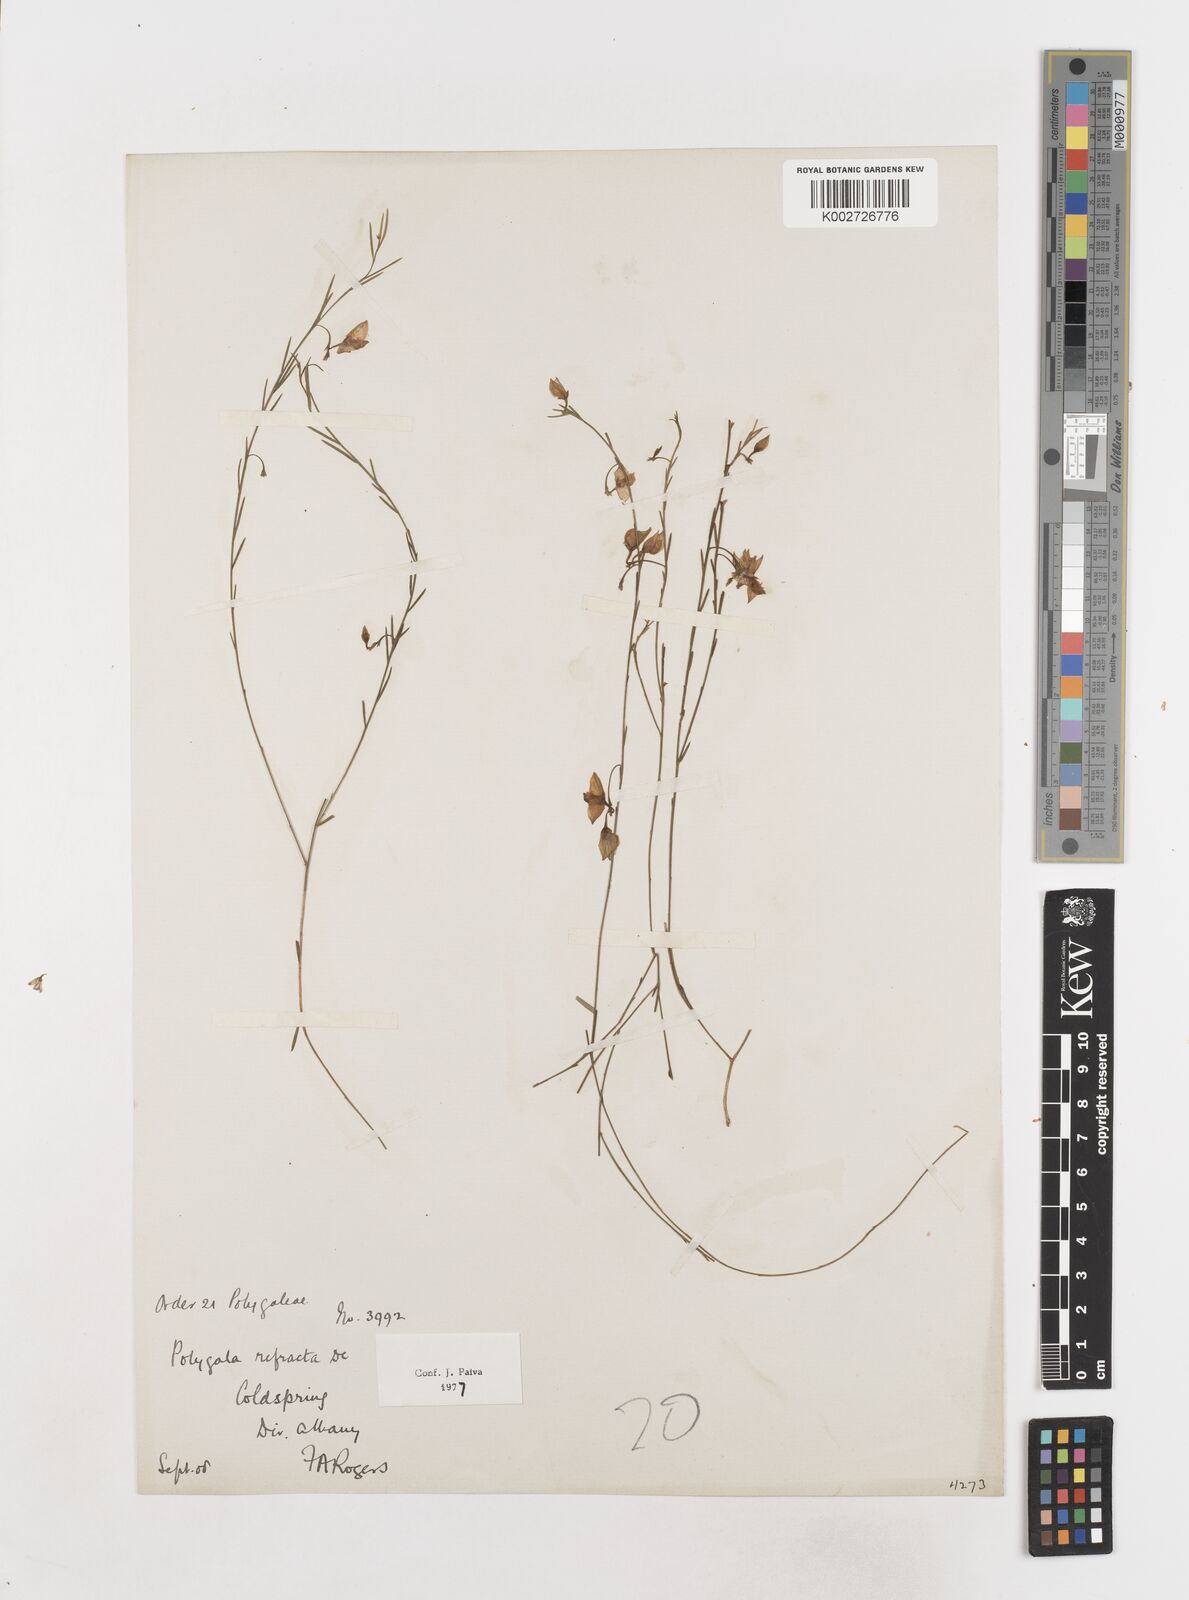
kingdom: Plantae
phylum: Tracheophyta
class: Magnoliopsida
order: Fabales
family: Polygalaceae
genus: Polygala
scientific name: Polygala refracta
